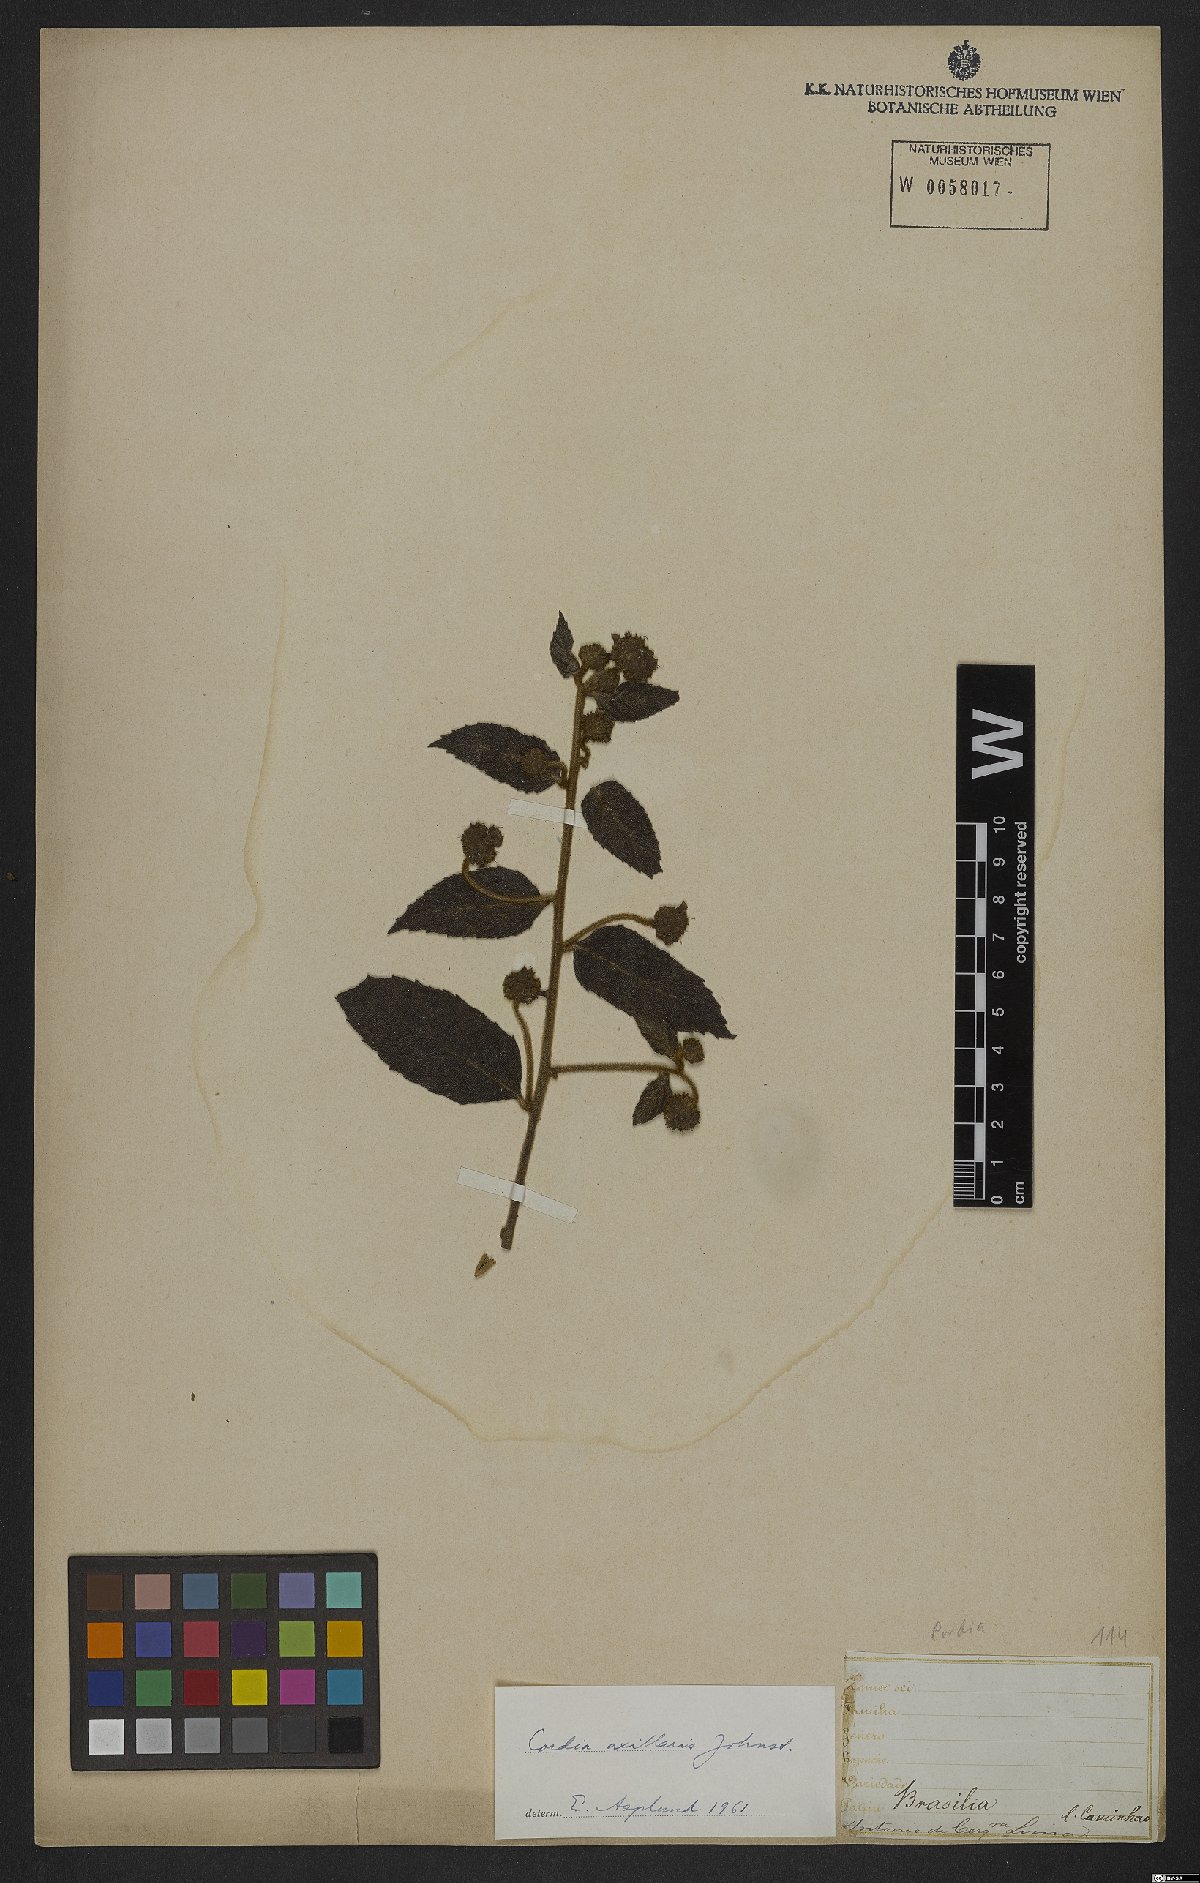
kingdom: Plantae
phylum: Tracheophyta
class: Magnoliopsida
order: Boraginales
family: Cordiaceae
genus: Varronia
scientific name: Varronia axillaris
